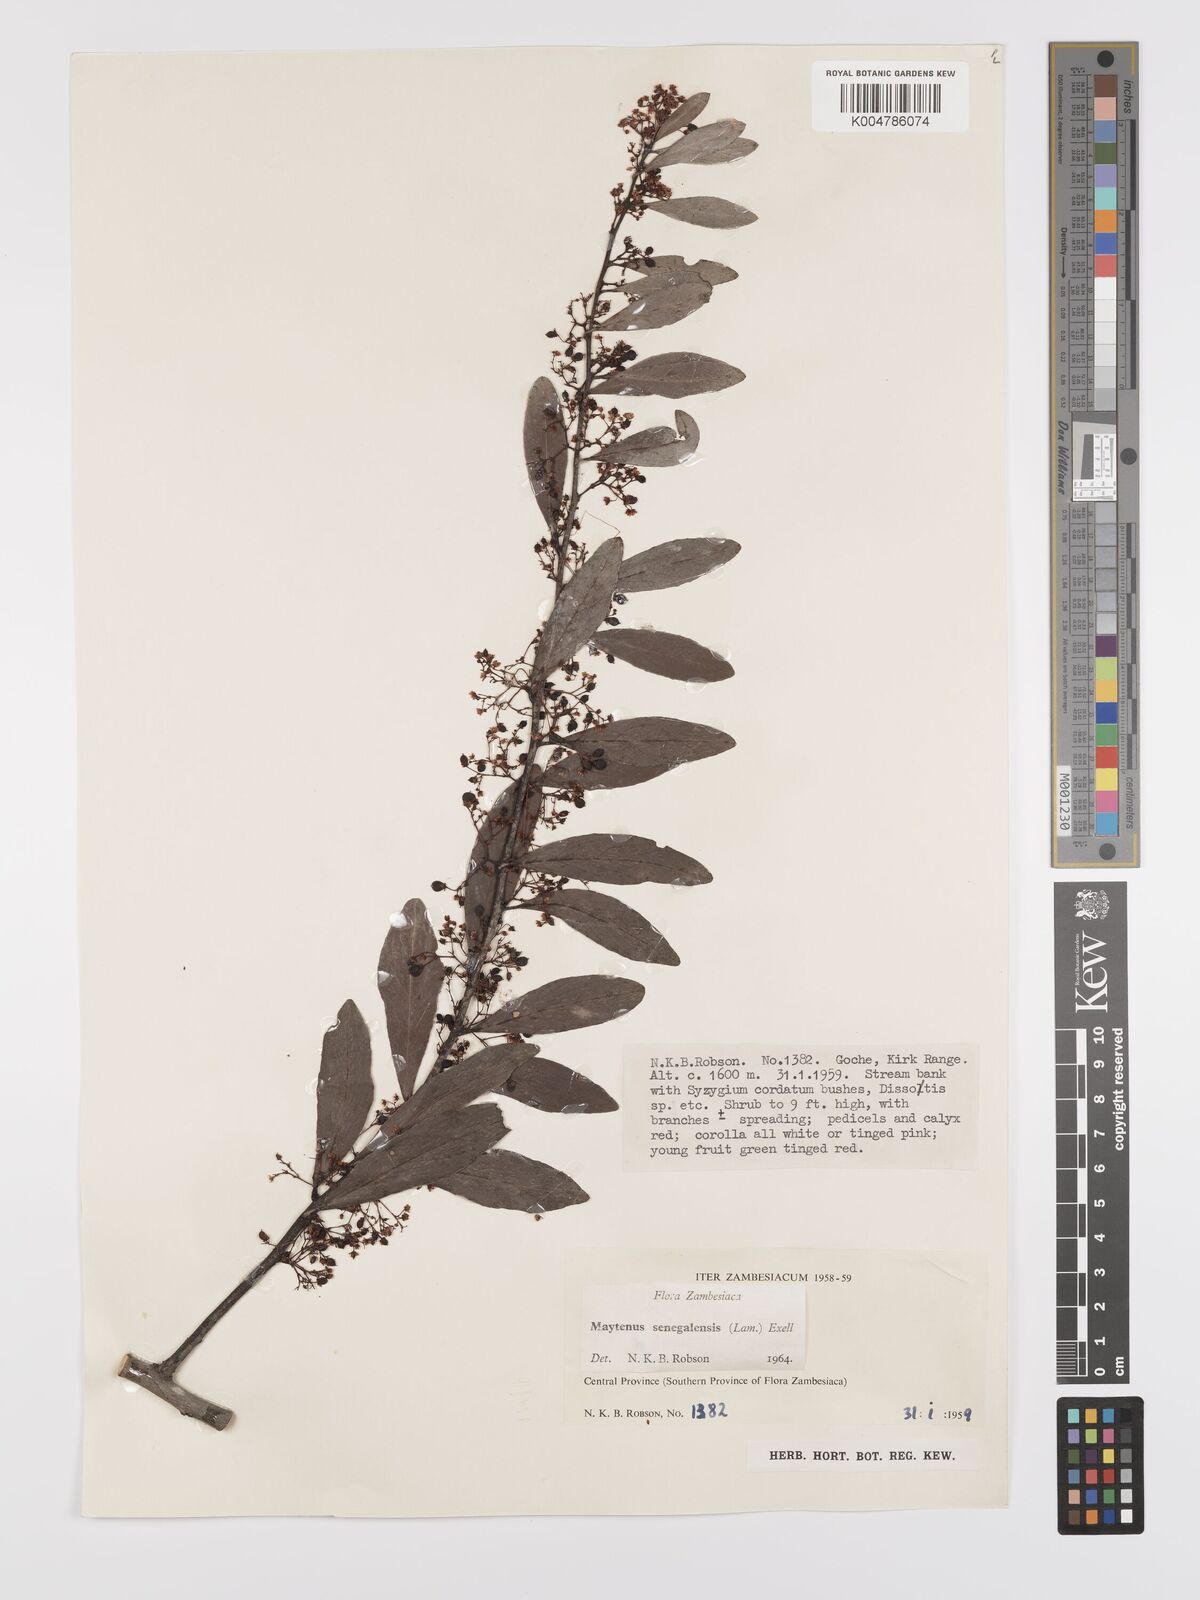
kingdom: Plantae
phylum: Tracheophyta
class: Magnoliopsida
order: Celastrales
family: Celastraceae
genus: Gymnosporia
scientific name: Gymnosporia senegalensis
